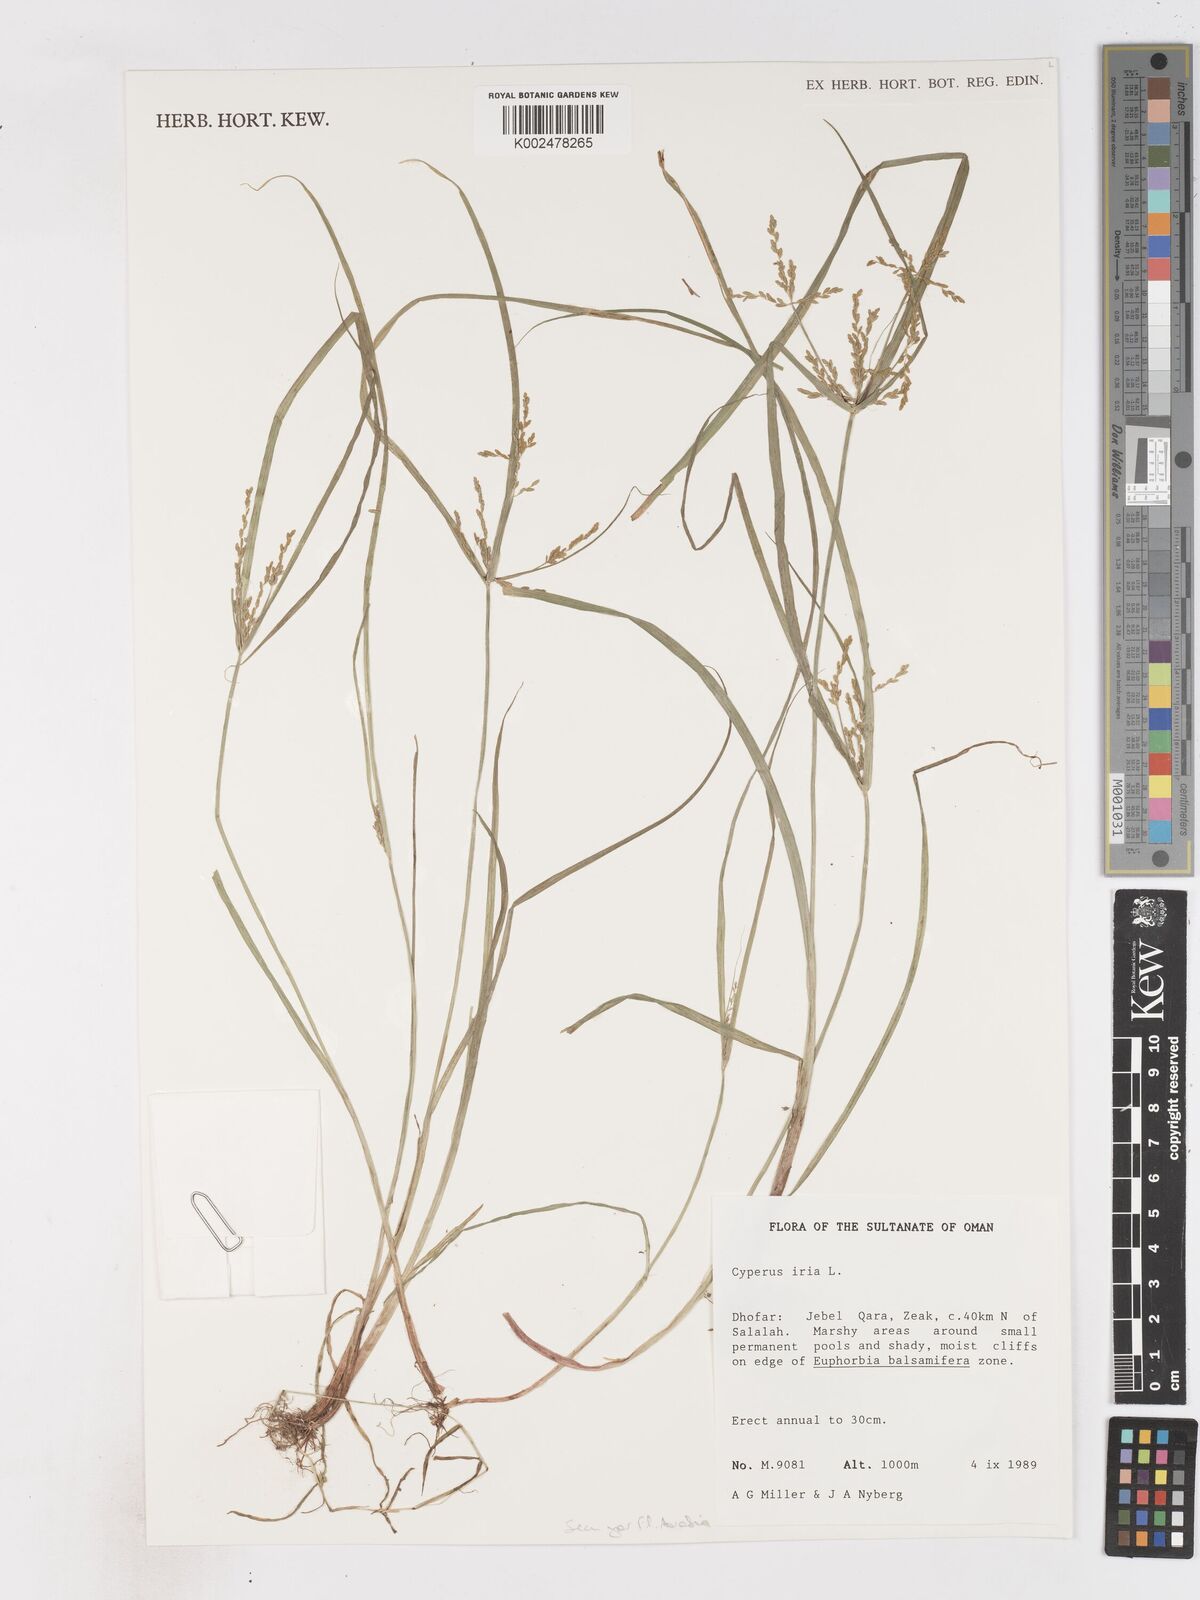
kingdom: Plantae
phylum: Tracheophyta
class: Liliopsida
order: Poales
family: Cyperaceae
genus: Cyperus
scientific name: Cyperus iria
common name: Ricefield flatsedge
